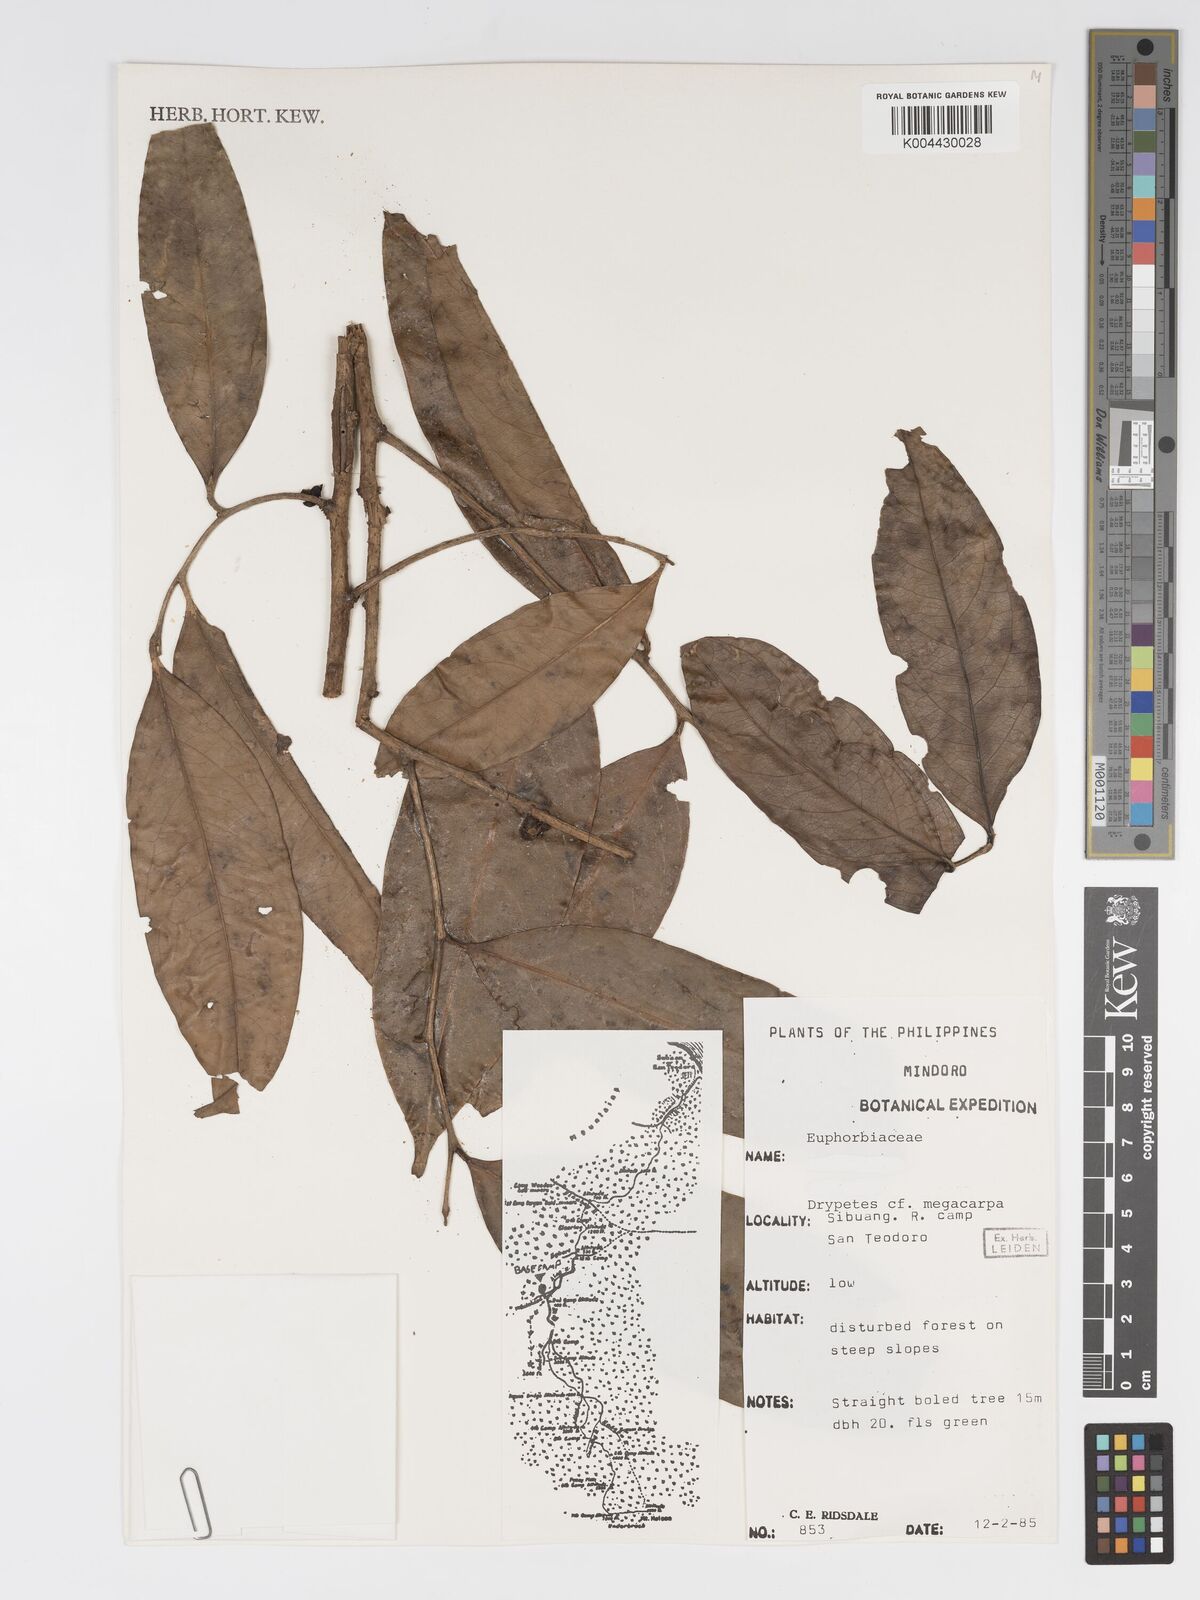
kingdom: Plantae
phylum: Tracheophyta
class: Magnoliopsida
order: Malpighiales
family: Putranjivaceae
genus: Drypetes
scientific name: Drypetes grandifolia
